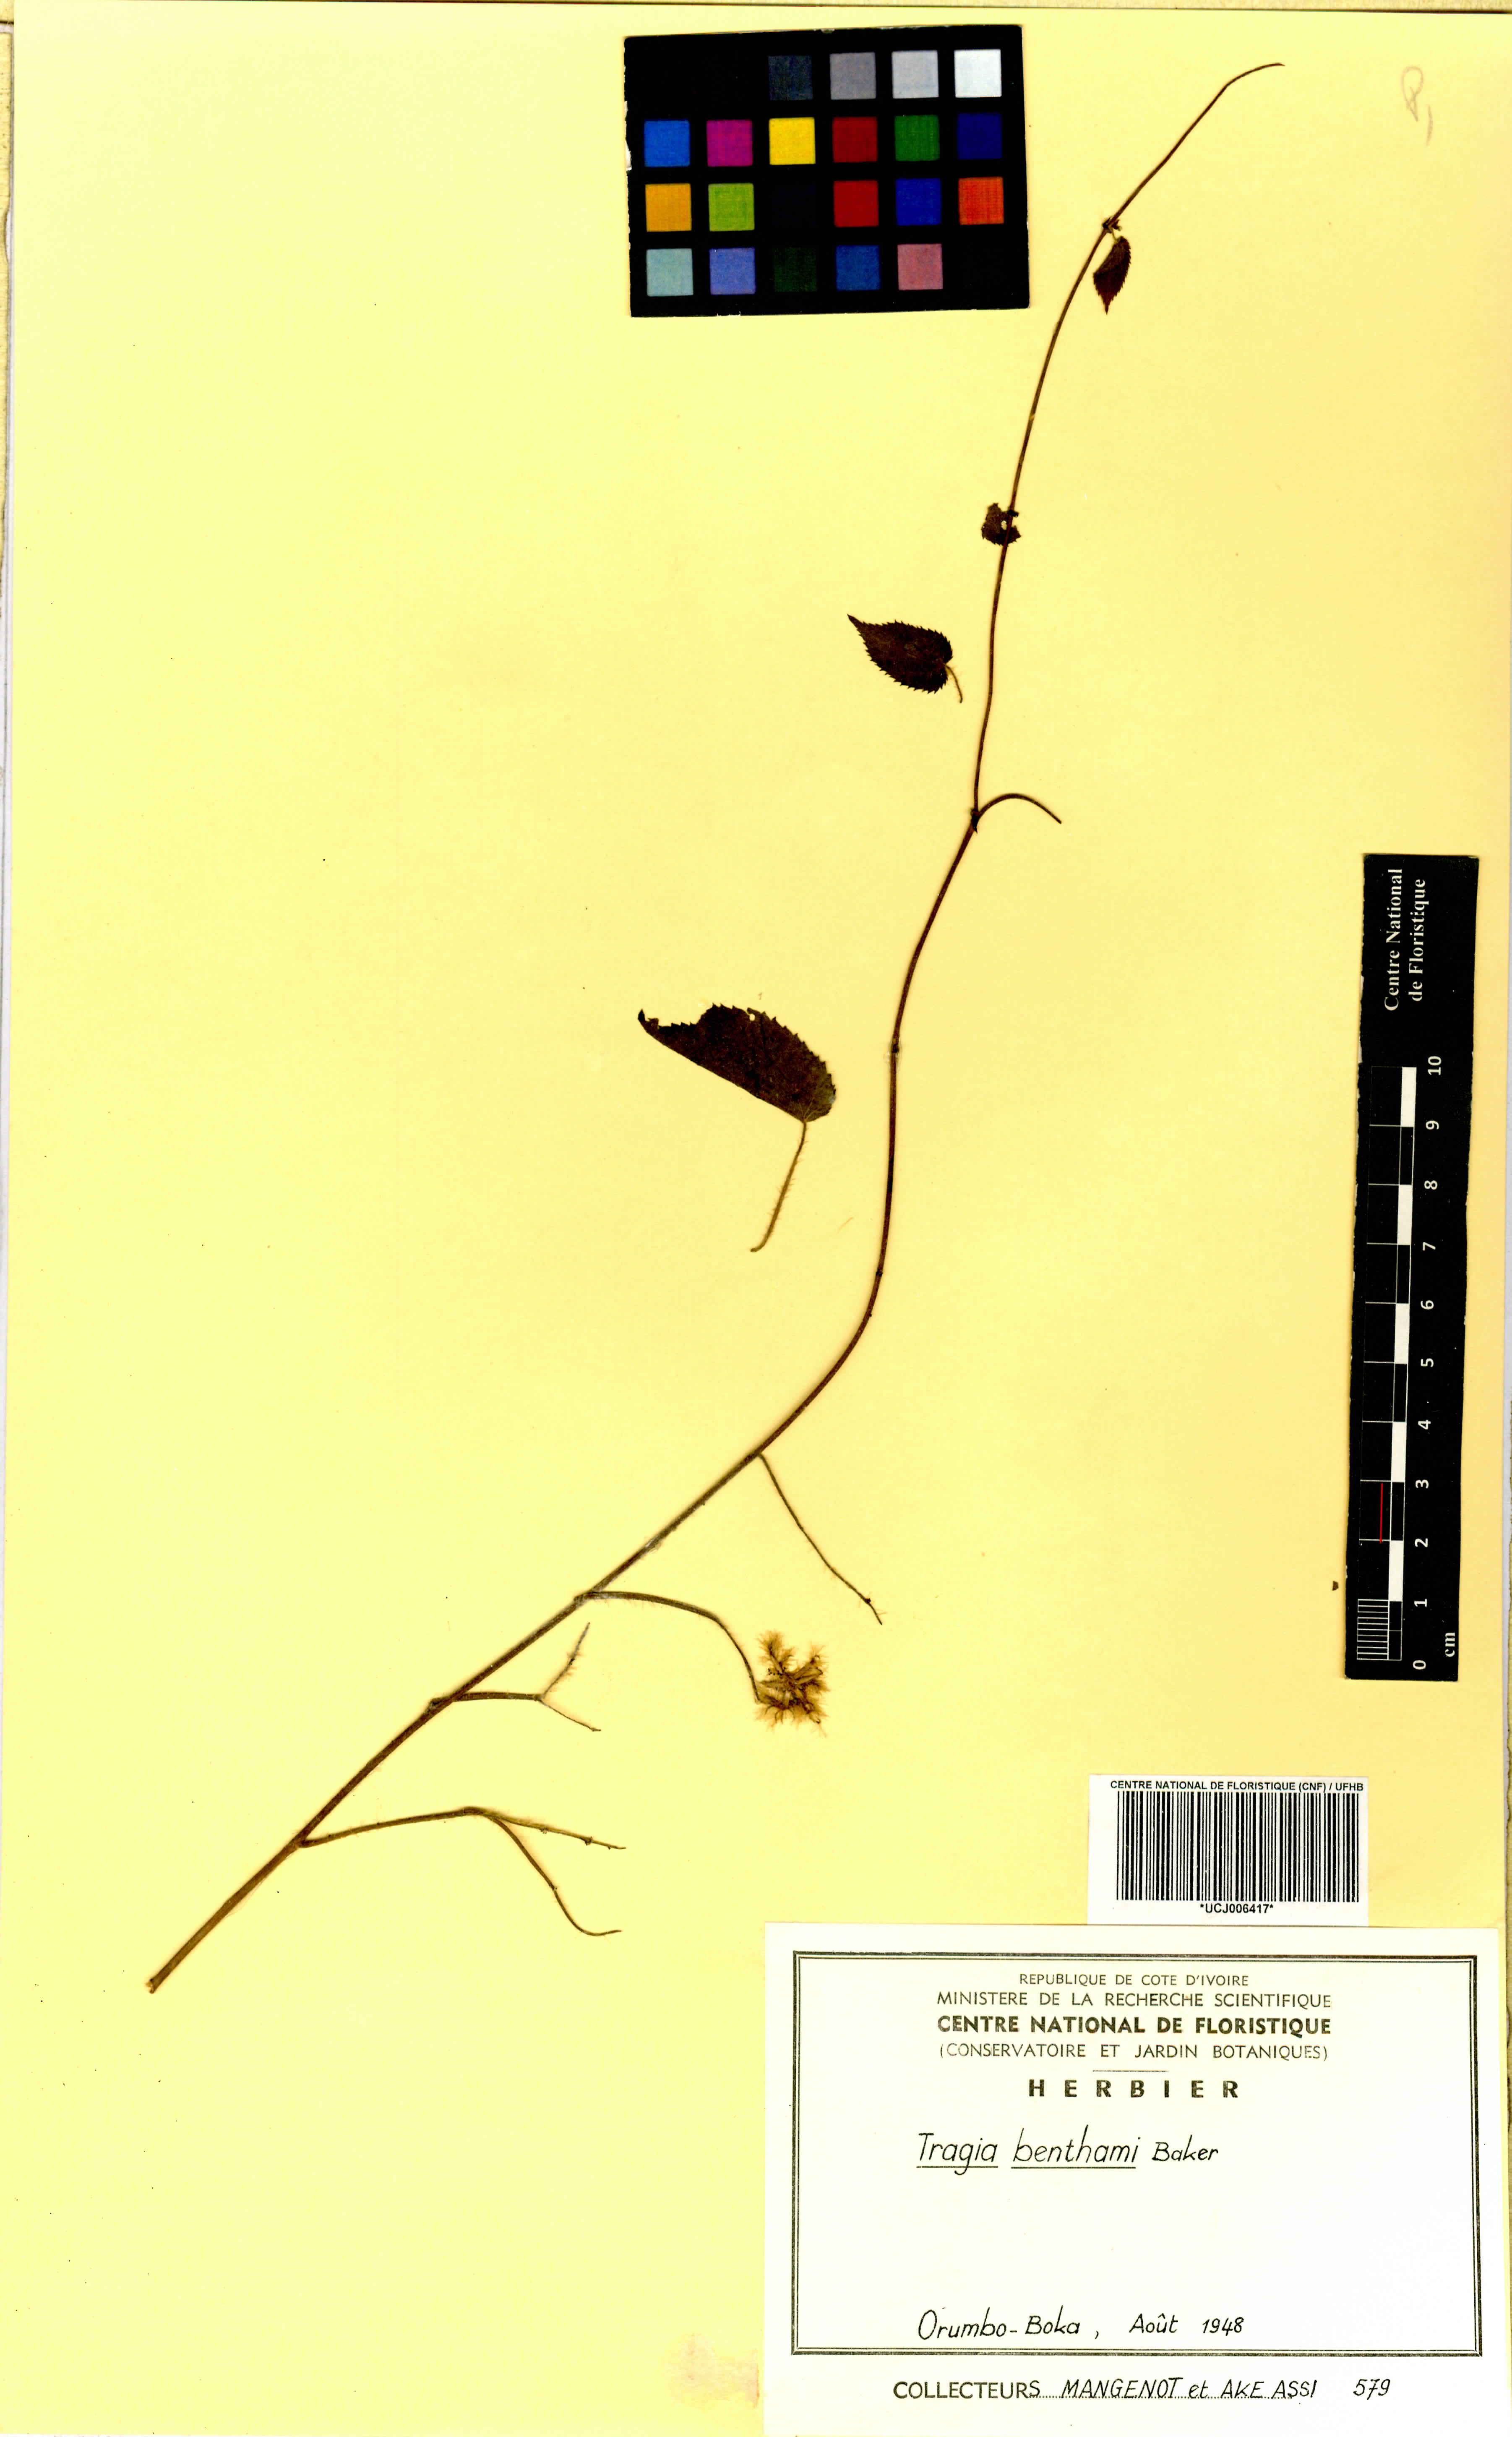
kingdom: Plantae
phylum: Tracheophyta
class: Magnoliopsida
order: Malpighiales
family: Euphorbiaceae
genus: Tragia
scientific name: Tragia benthamii
